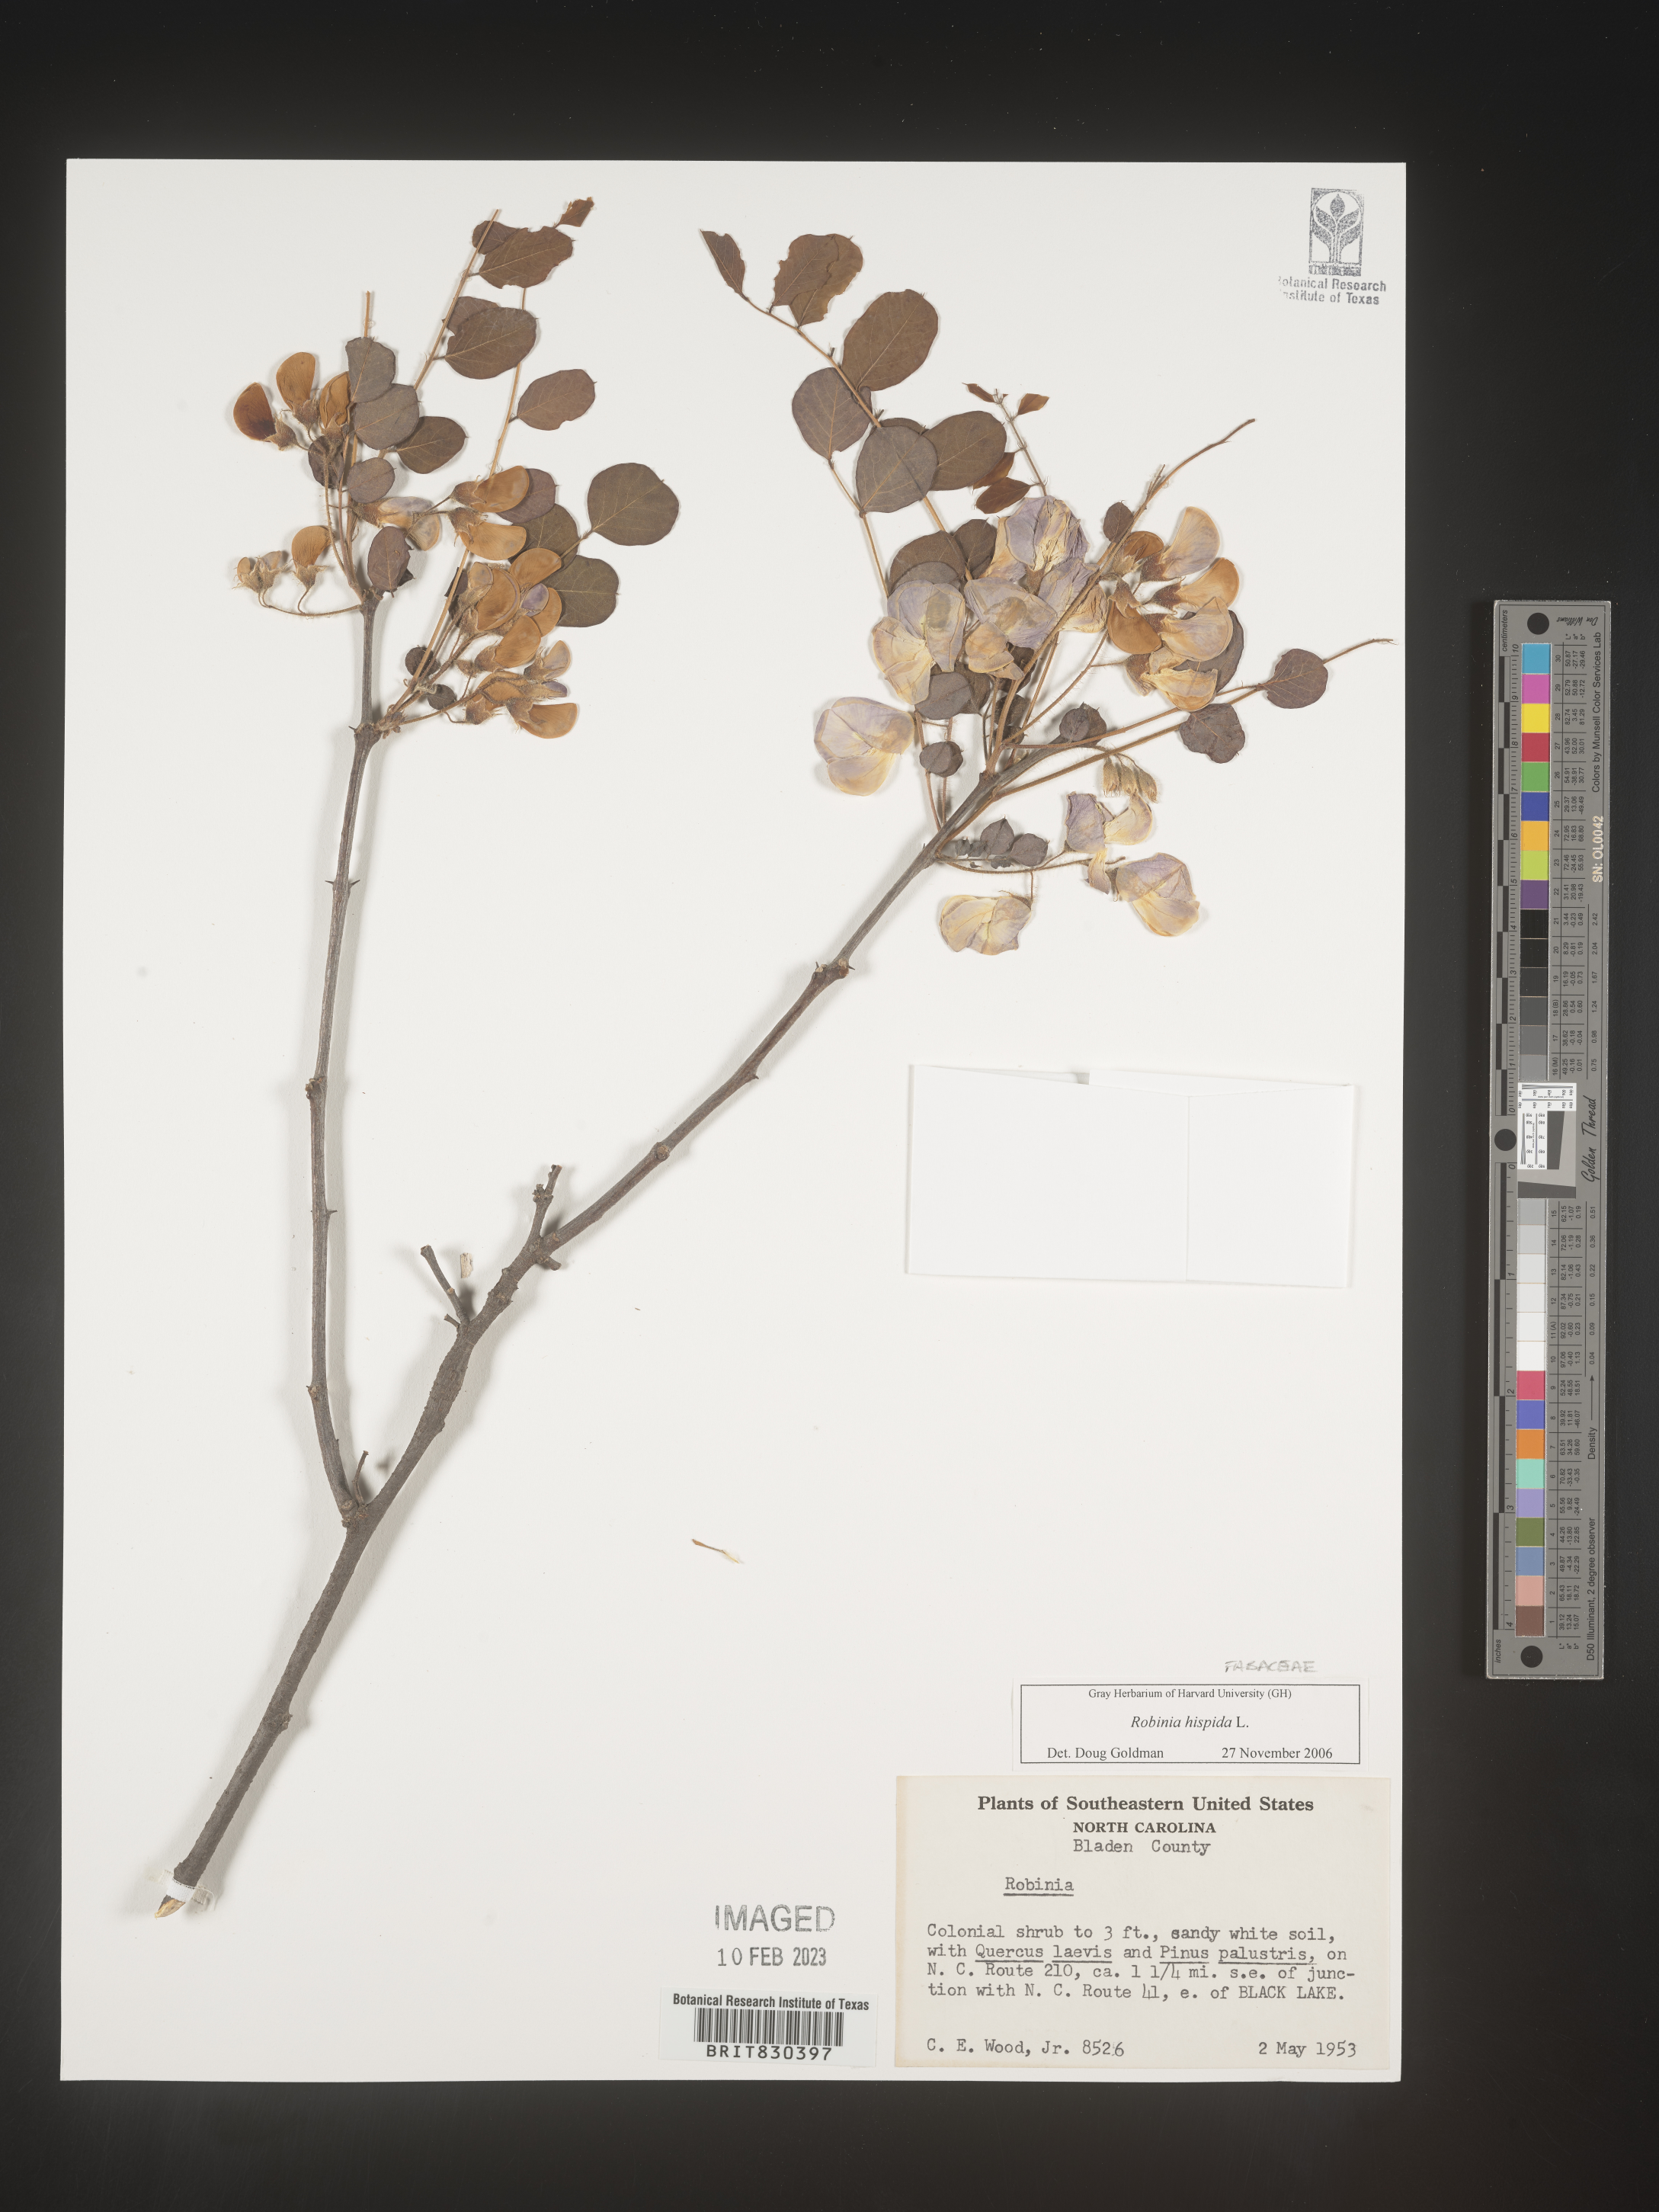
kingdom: Plantae
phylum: Tracheophyta
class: Magnoliopsida
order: Fabales
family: Fabaceae
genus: Robinia
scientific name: Robinia hispida
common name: Bristly locust
